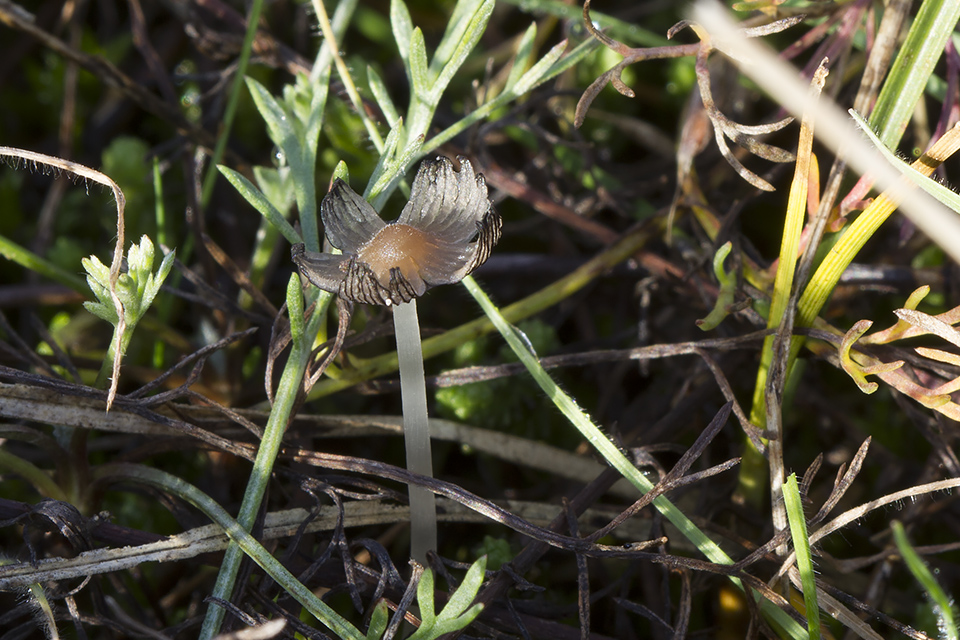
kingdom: Fungi
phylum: Basidiomycota
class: Agaricomycetes
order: Agaricales
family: Psathyrellaceae
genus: Tulosesus
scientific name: Tulosesus sclerocystidiosus
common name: brunhåret blækhat
